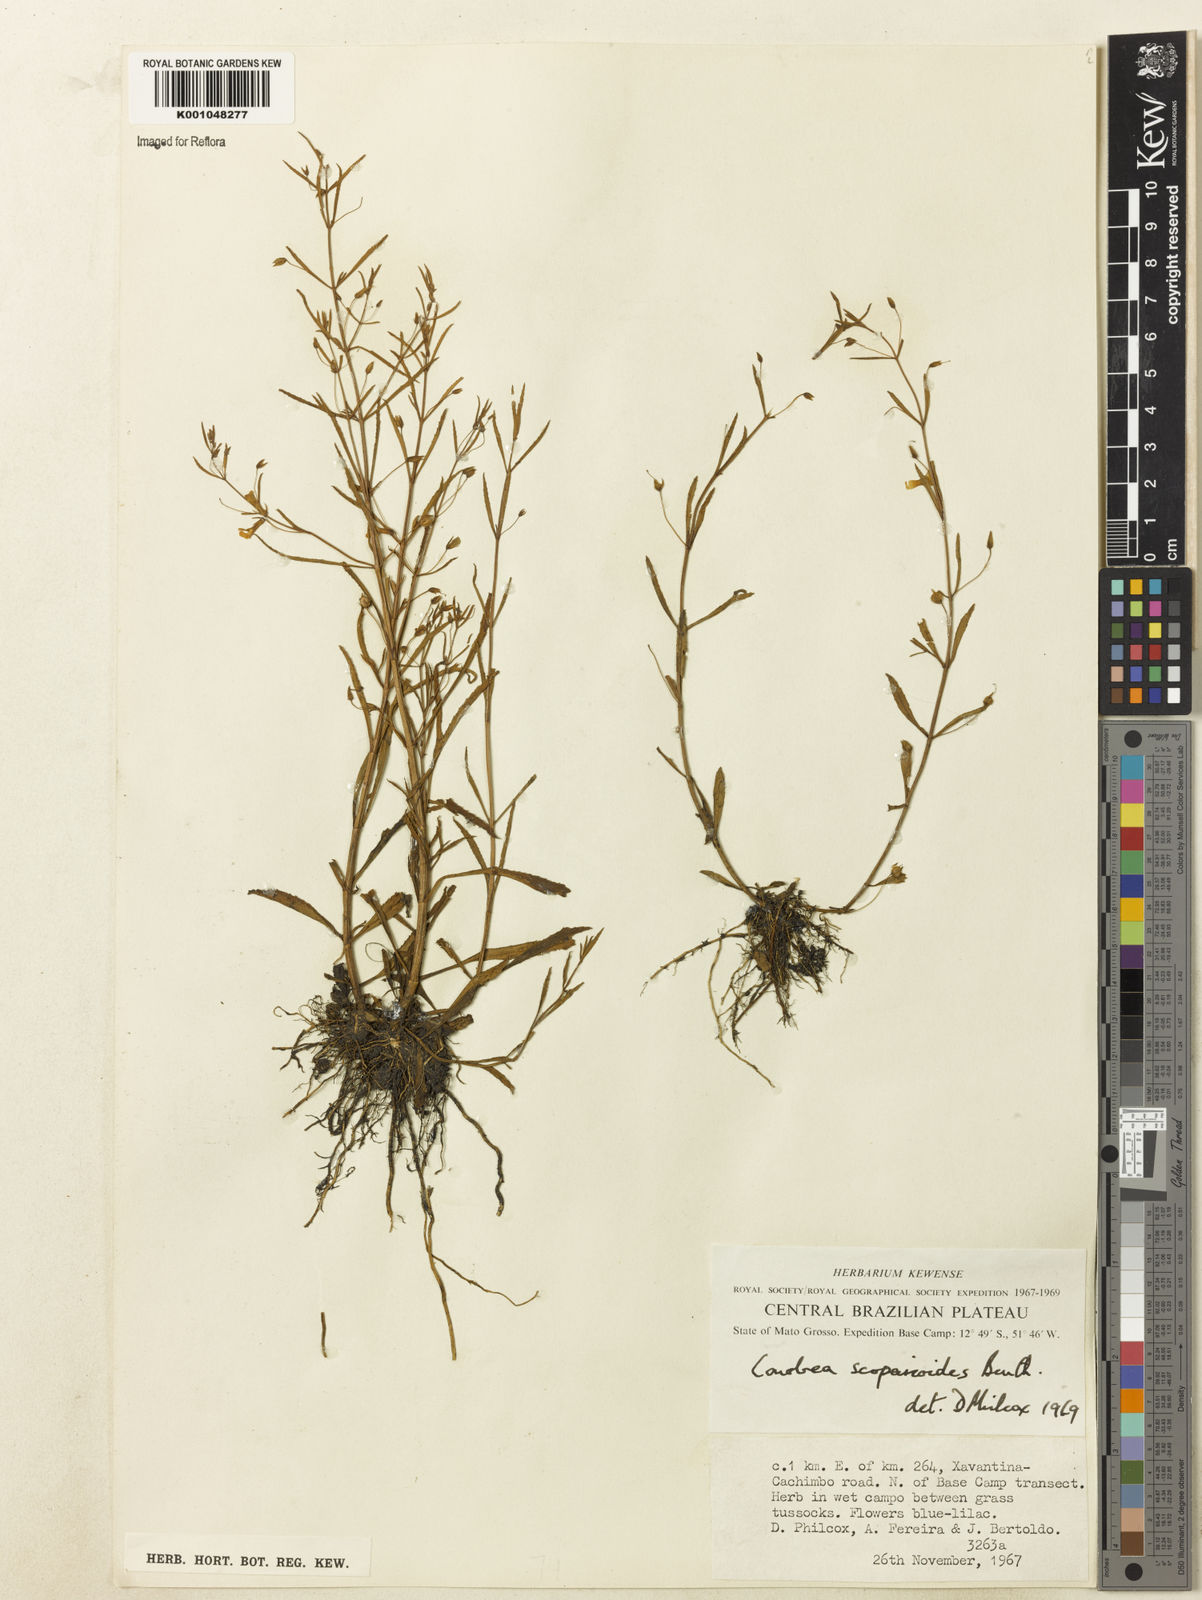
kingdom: Plantae
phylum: Tracheophyta
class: Magnoliopsida
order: Lamiales
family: Plantaginaceae
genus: Conobea
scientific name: Conobea scoparioides
